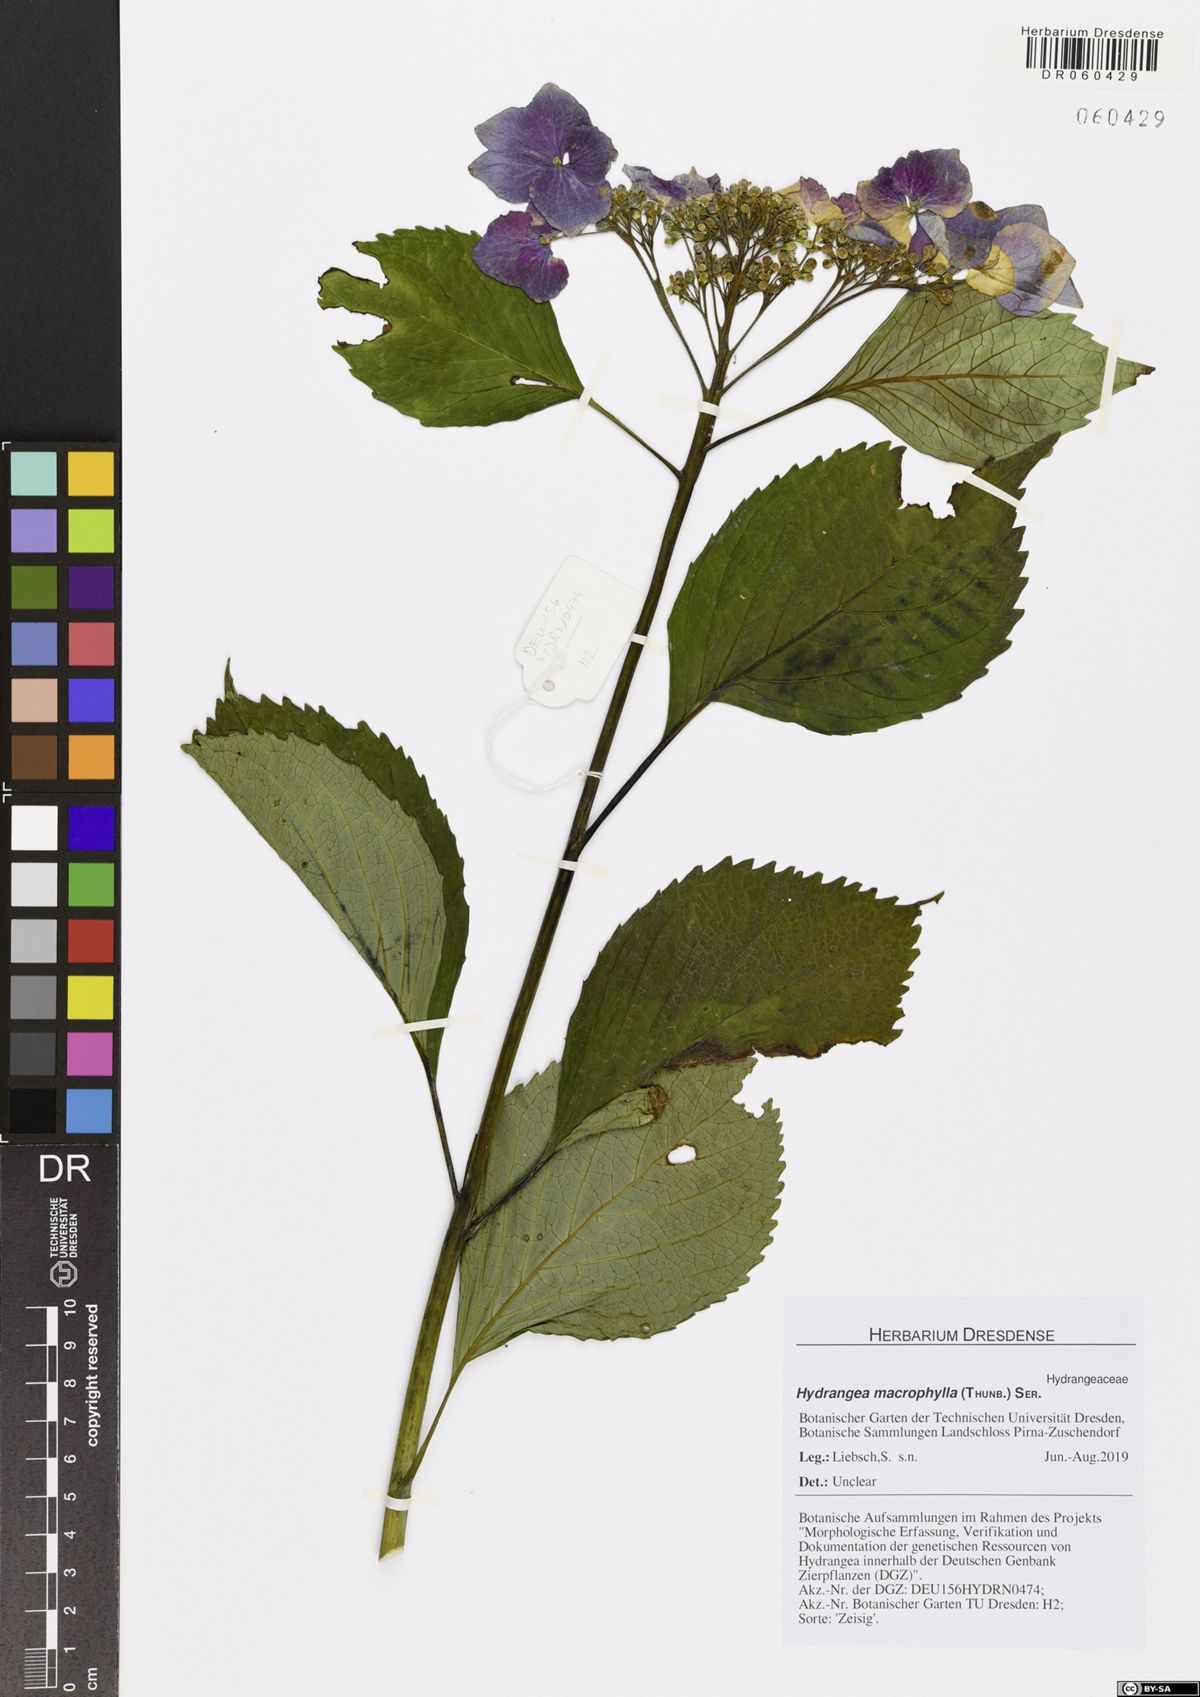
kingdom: Plantae
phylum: Tracheophyta
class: Magnoliopsida
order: Cornales
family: Hydrangeaceae
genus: Hydrangea
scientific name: Hydrangea macrophylla
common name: Hydrangea
